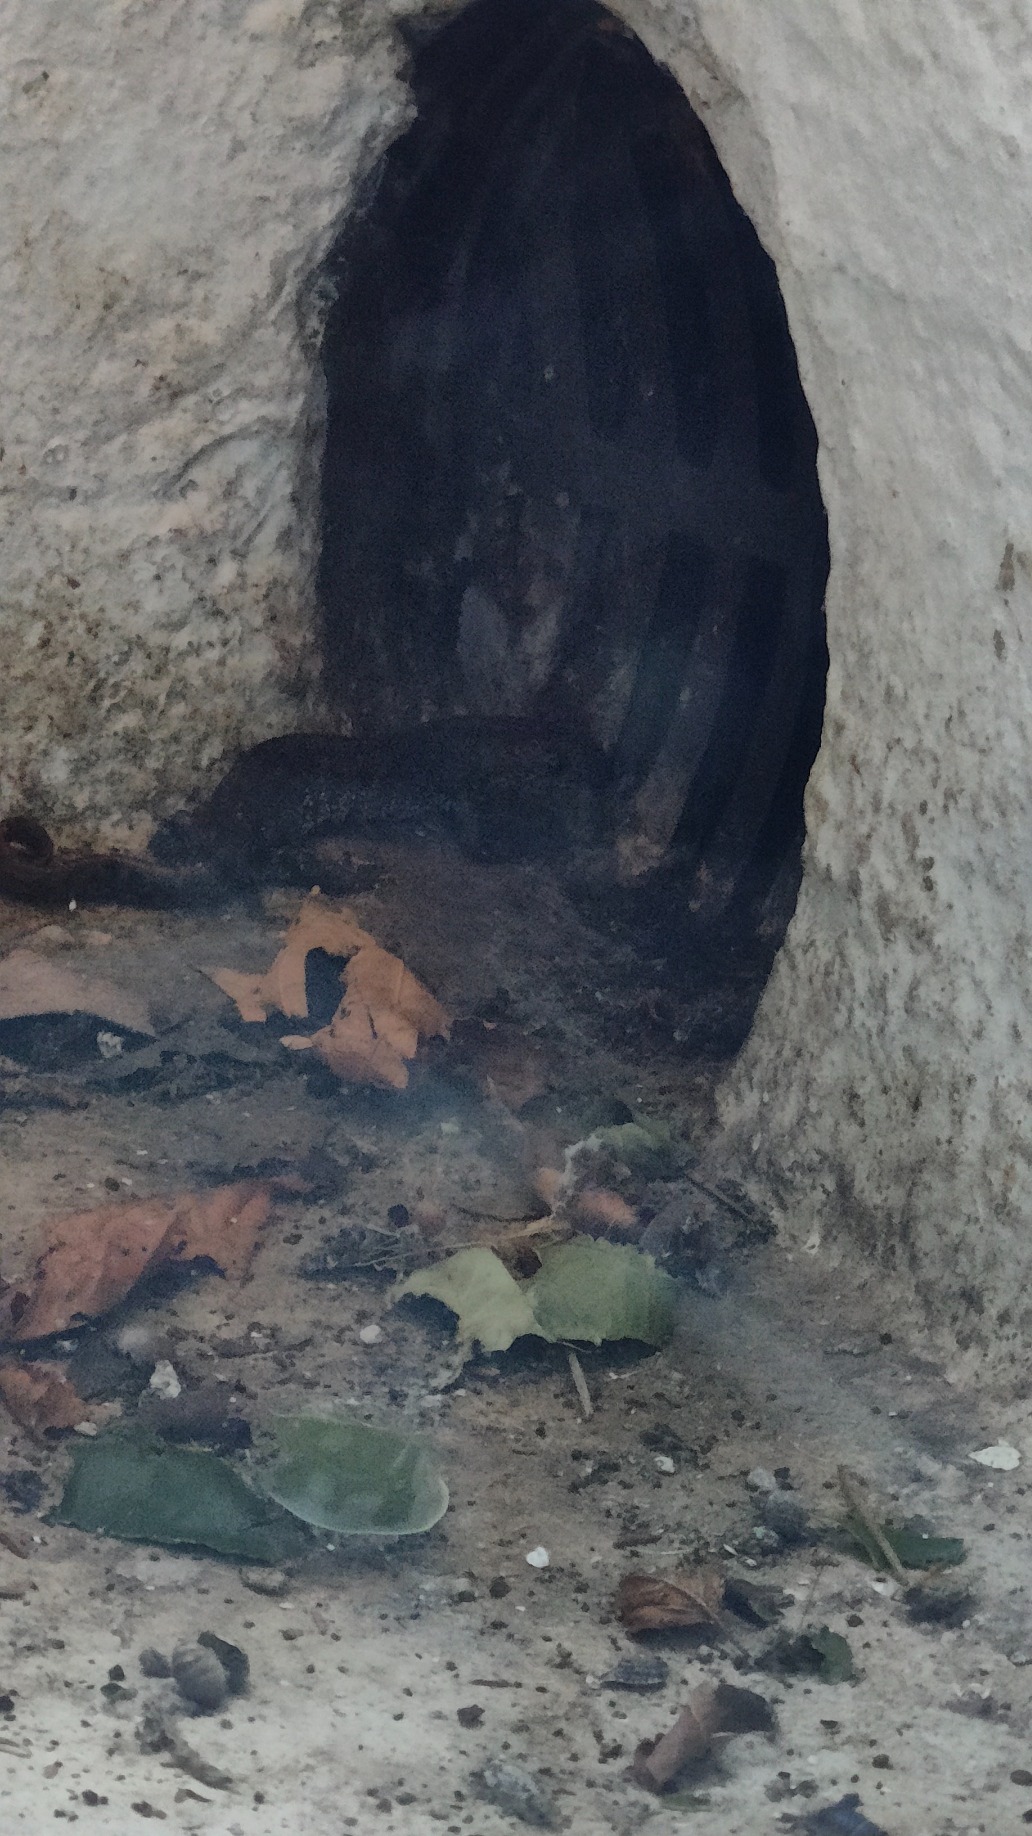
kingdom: Animalia
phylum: Chordata
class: Amphibia
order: Caudata
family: Salamandridae
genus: Triturus
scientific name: Triturus cristatus
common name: Stor vandsalamander
